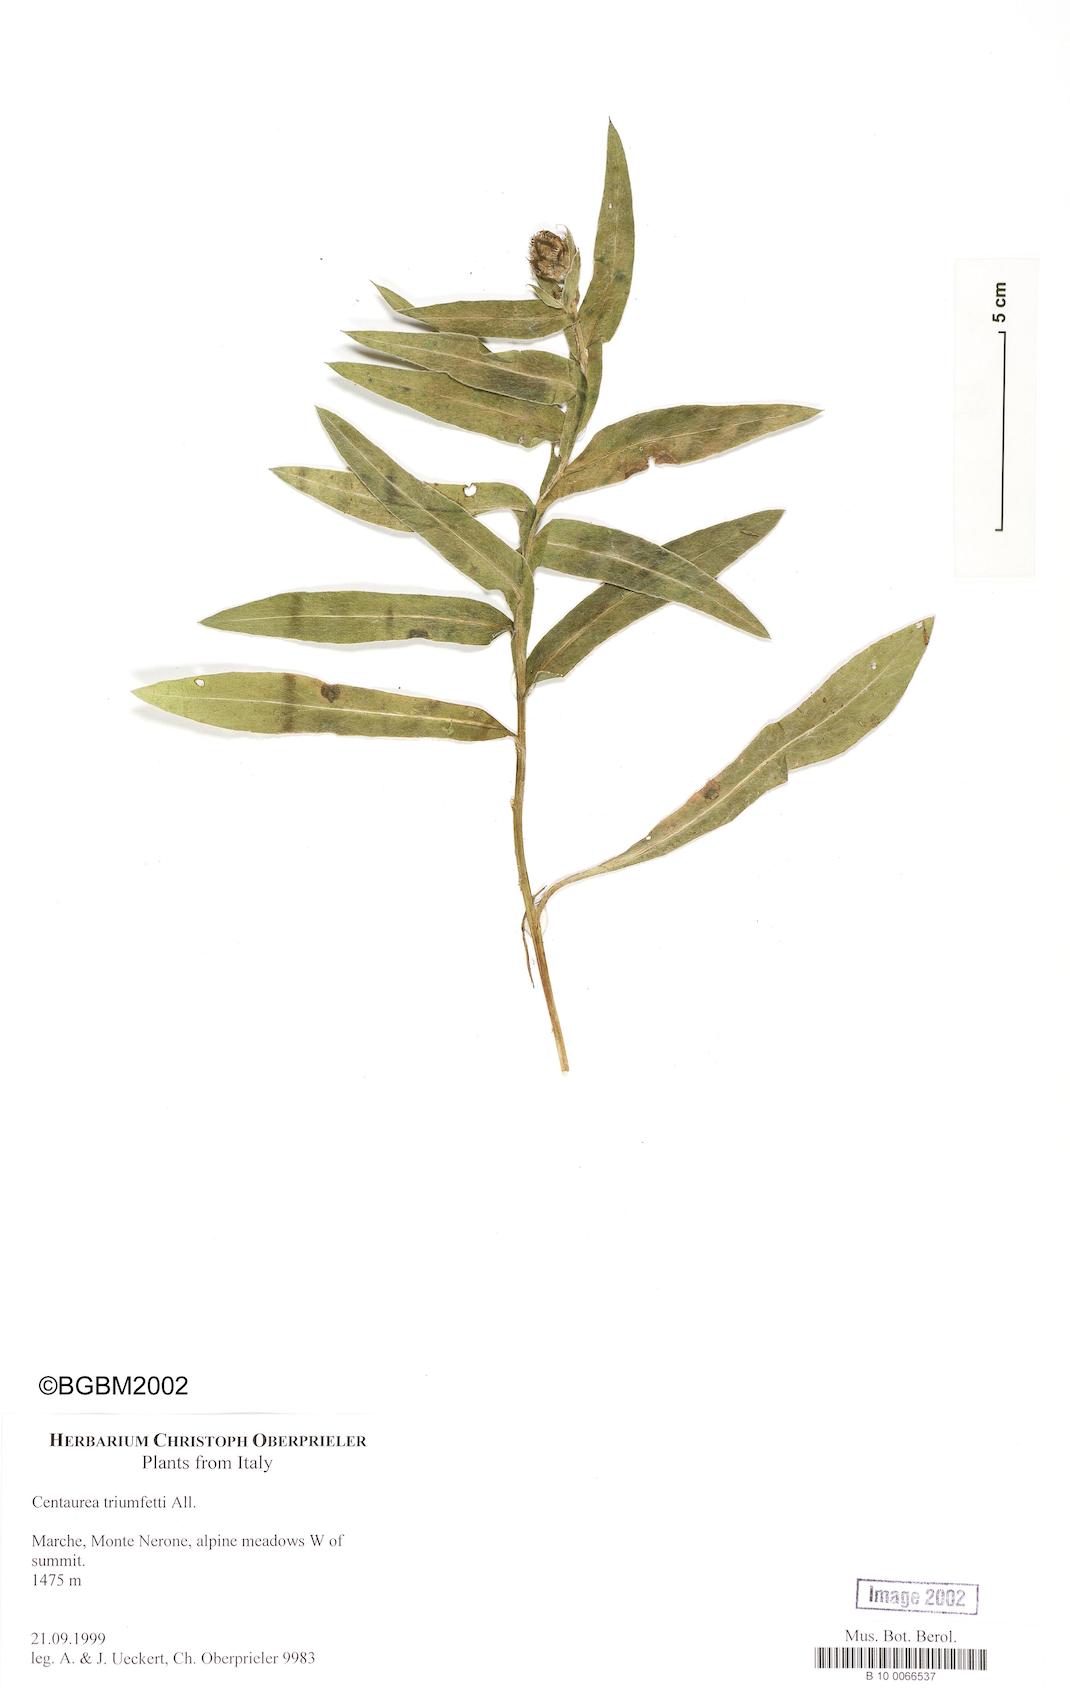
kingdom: Plantae
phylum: Tracheophyta
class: Magnoliopsida
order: Asterales
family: Asteraceae
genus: Centaurea
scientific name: Centaurea triumfettii
